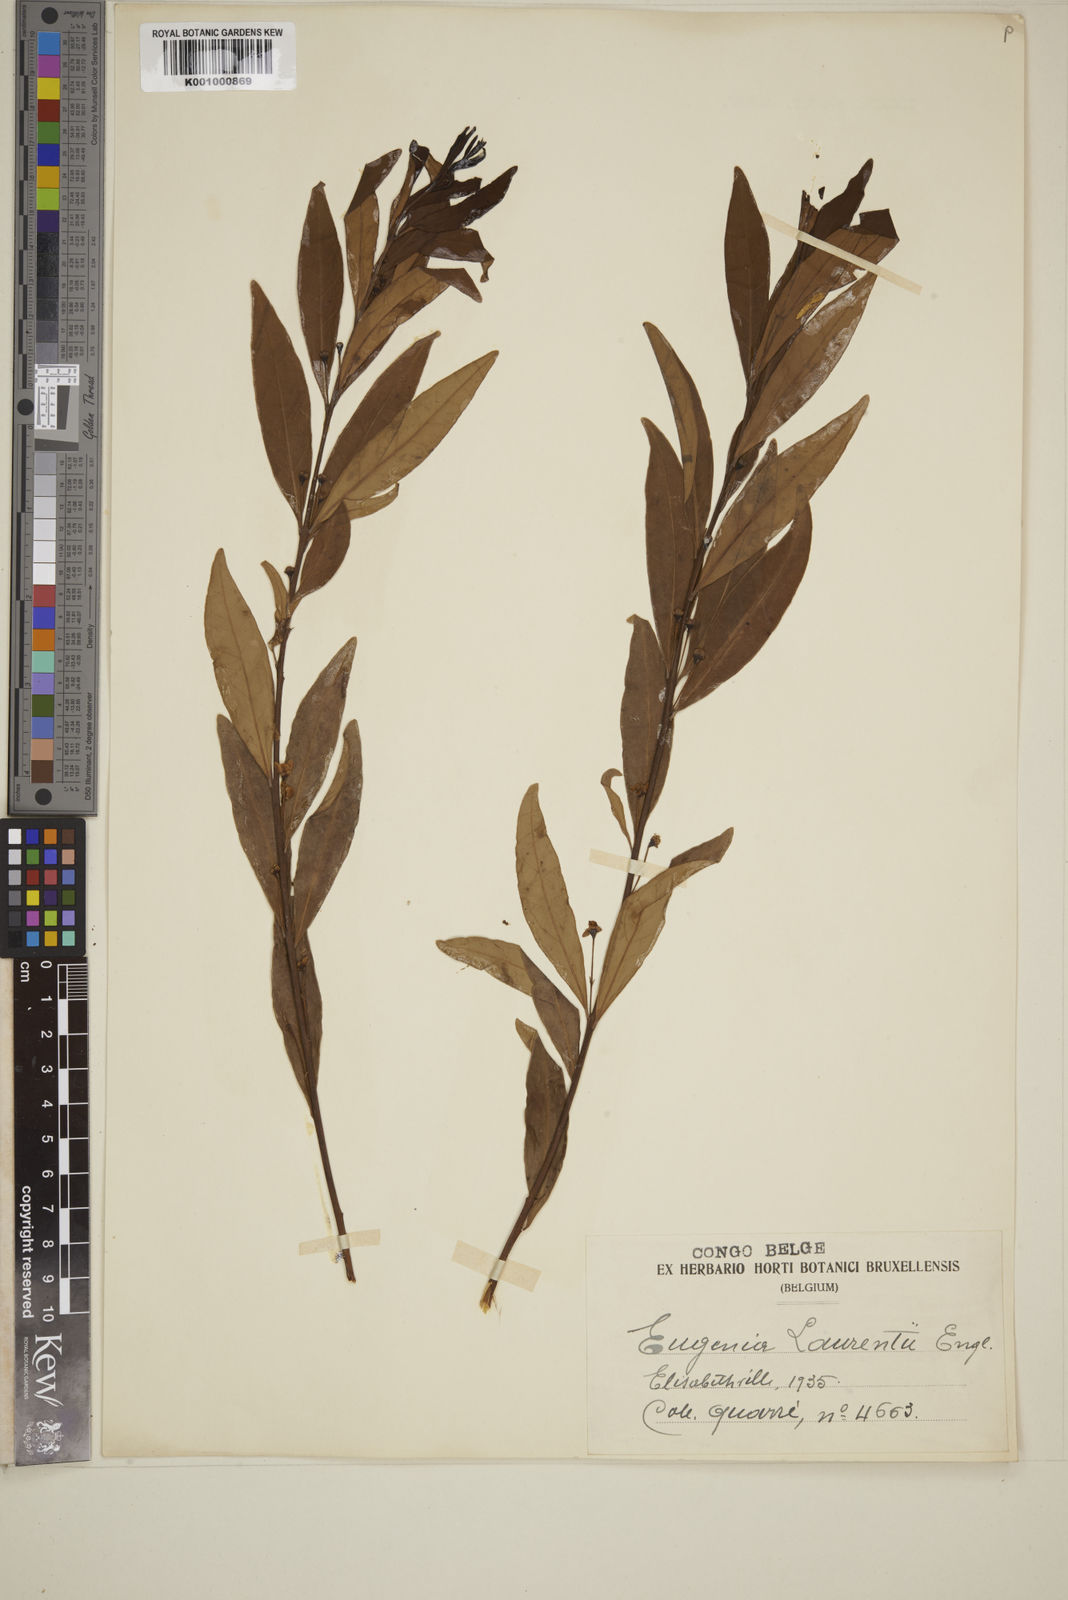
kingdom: Plantae
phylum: Tracheophyta
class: Magnoliopsida
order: Myrtales
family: Myrtaceae
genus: Eugenia
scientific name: Eugenia malangensis
